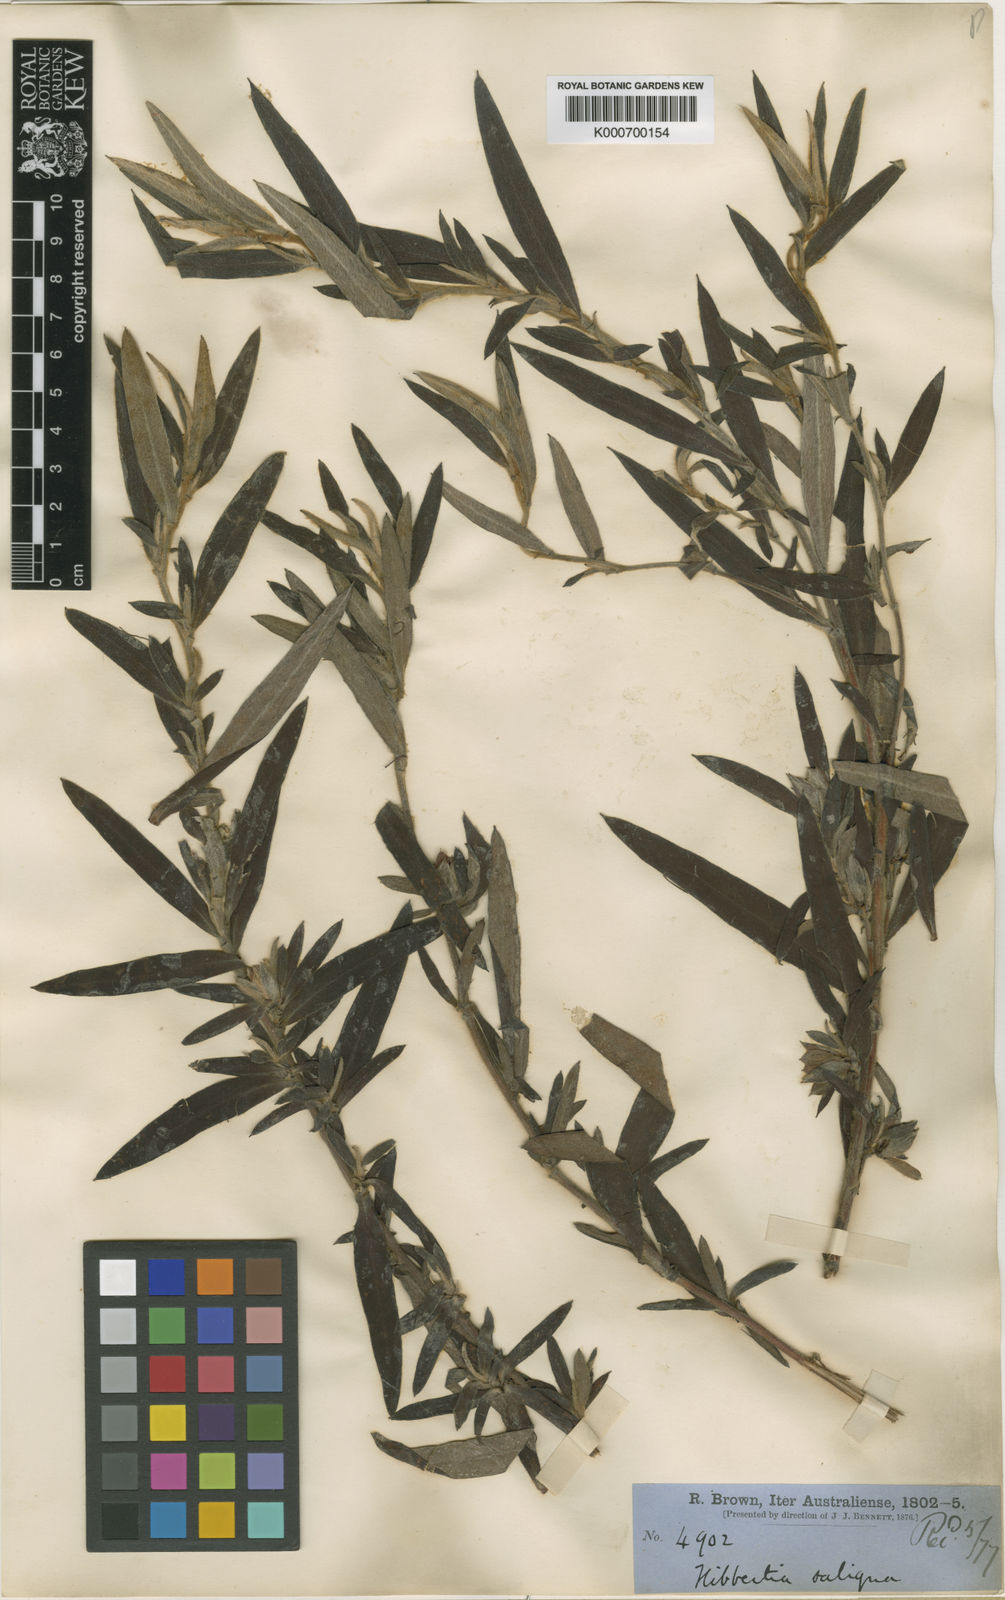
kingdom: Plantae
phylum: Tracheophyta
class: Magnoliopsida
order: Dilleniales
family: Dilleniaceae
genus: Hibbertia
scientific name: Hibbertia saligna
